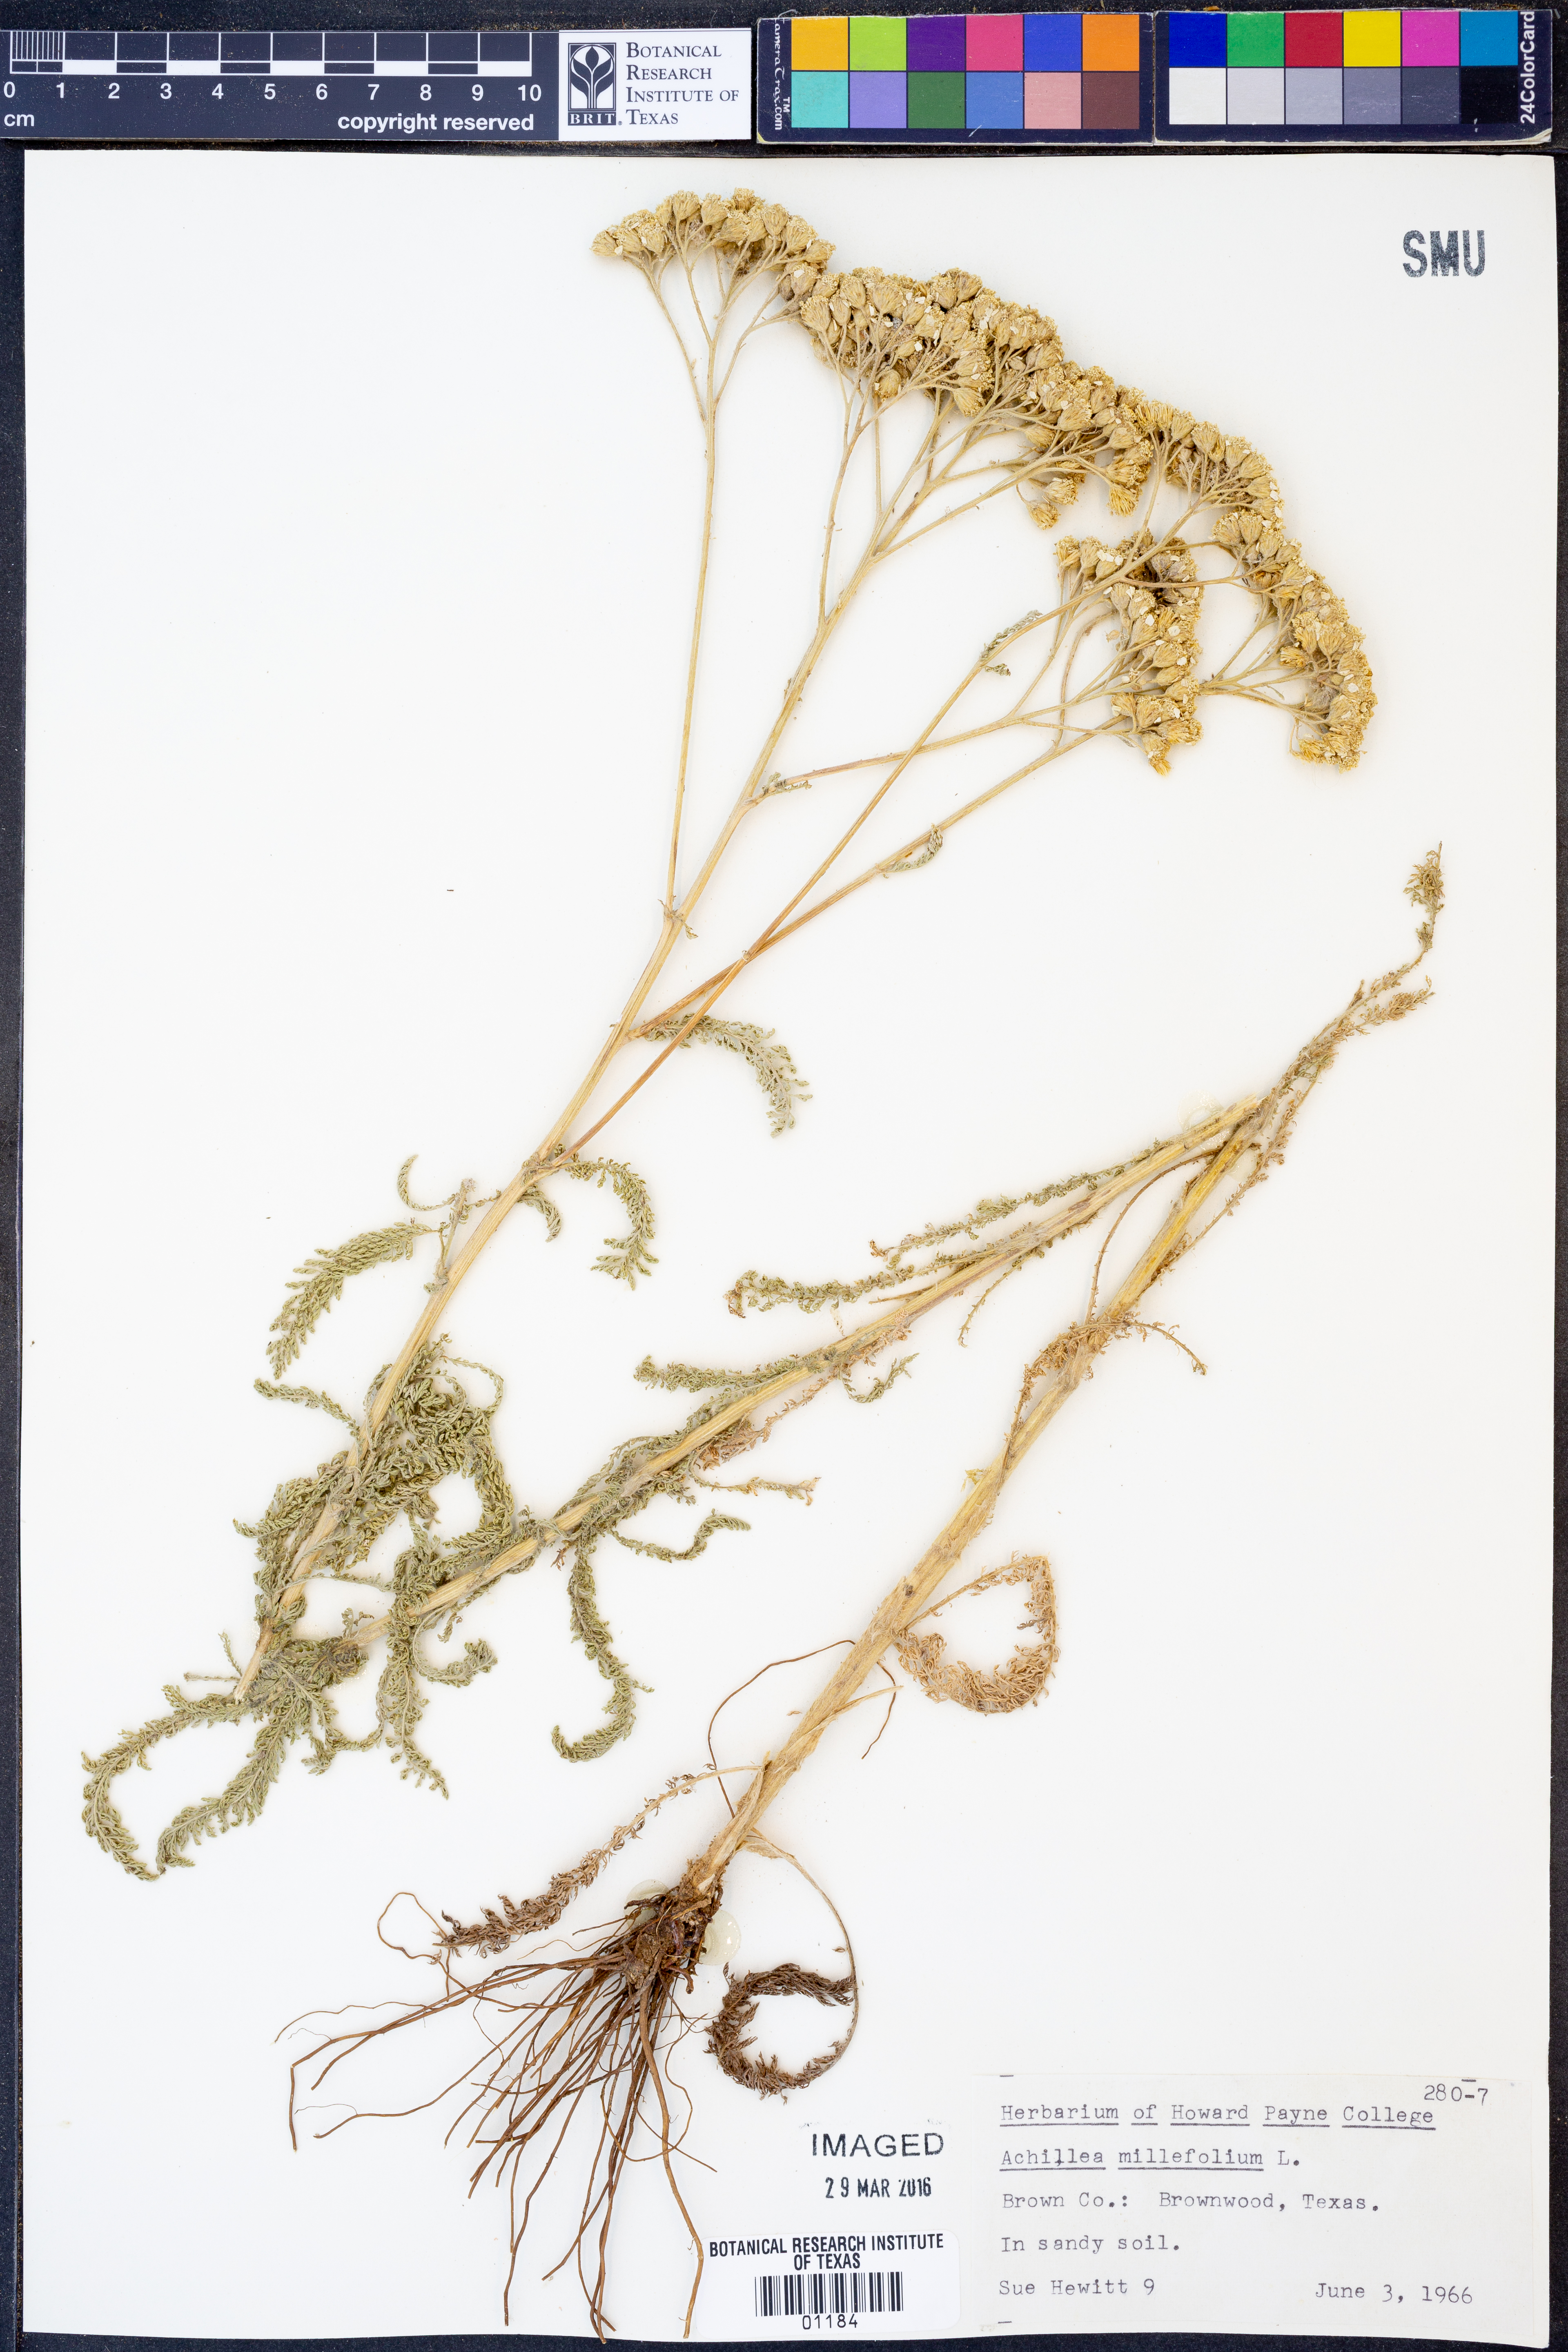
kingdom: Plantae
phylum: Tracheophyta
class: Magnoliopsida
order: Asterales
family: Asteraceae
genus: Achillea
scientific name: Achillea millefolium
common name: Yarrow
